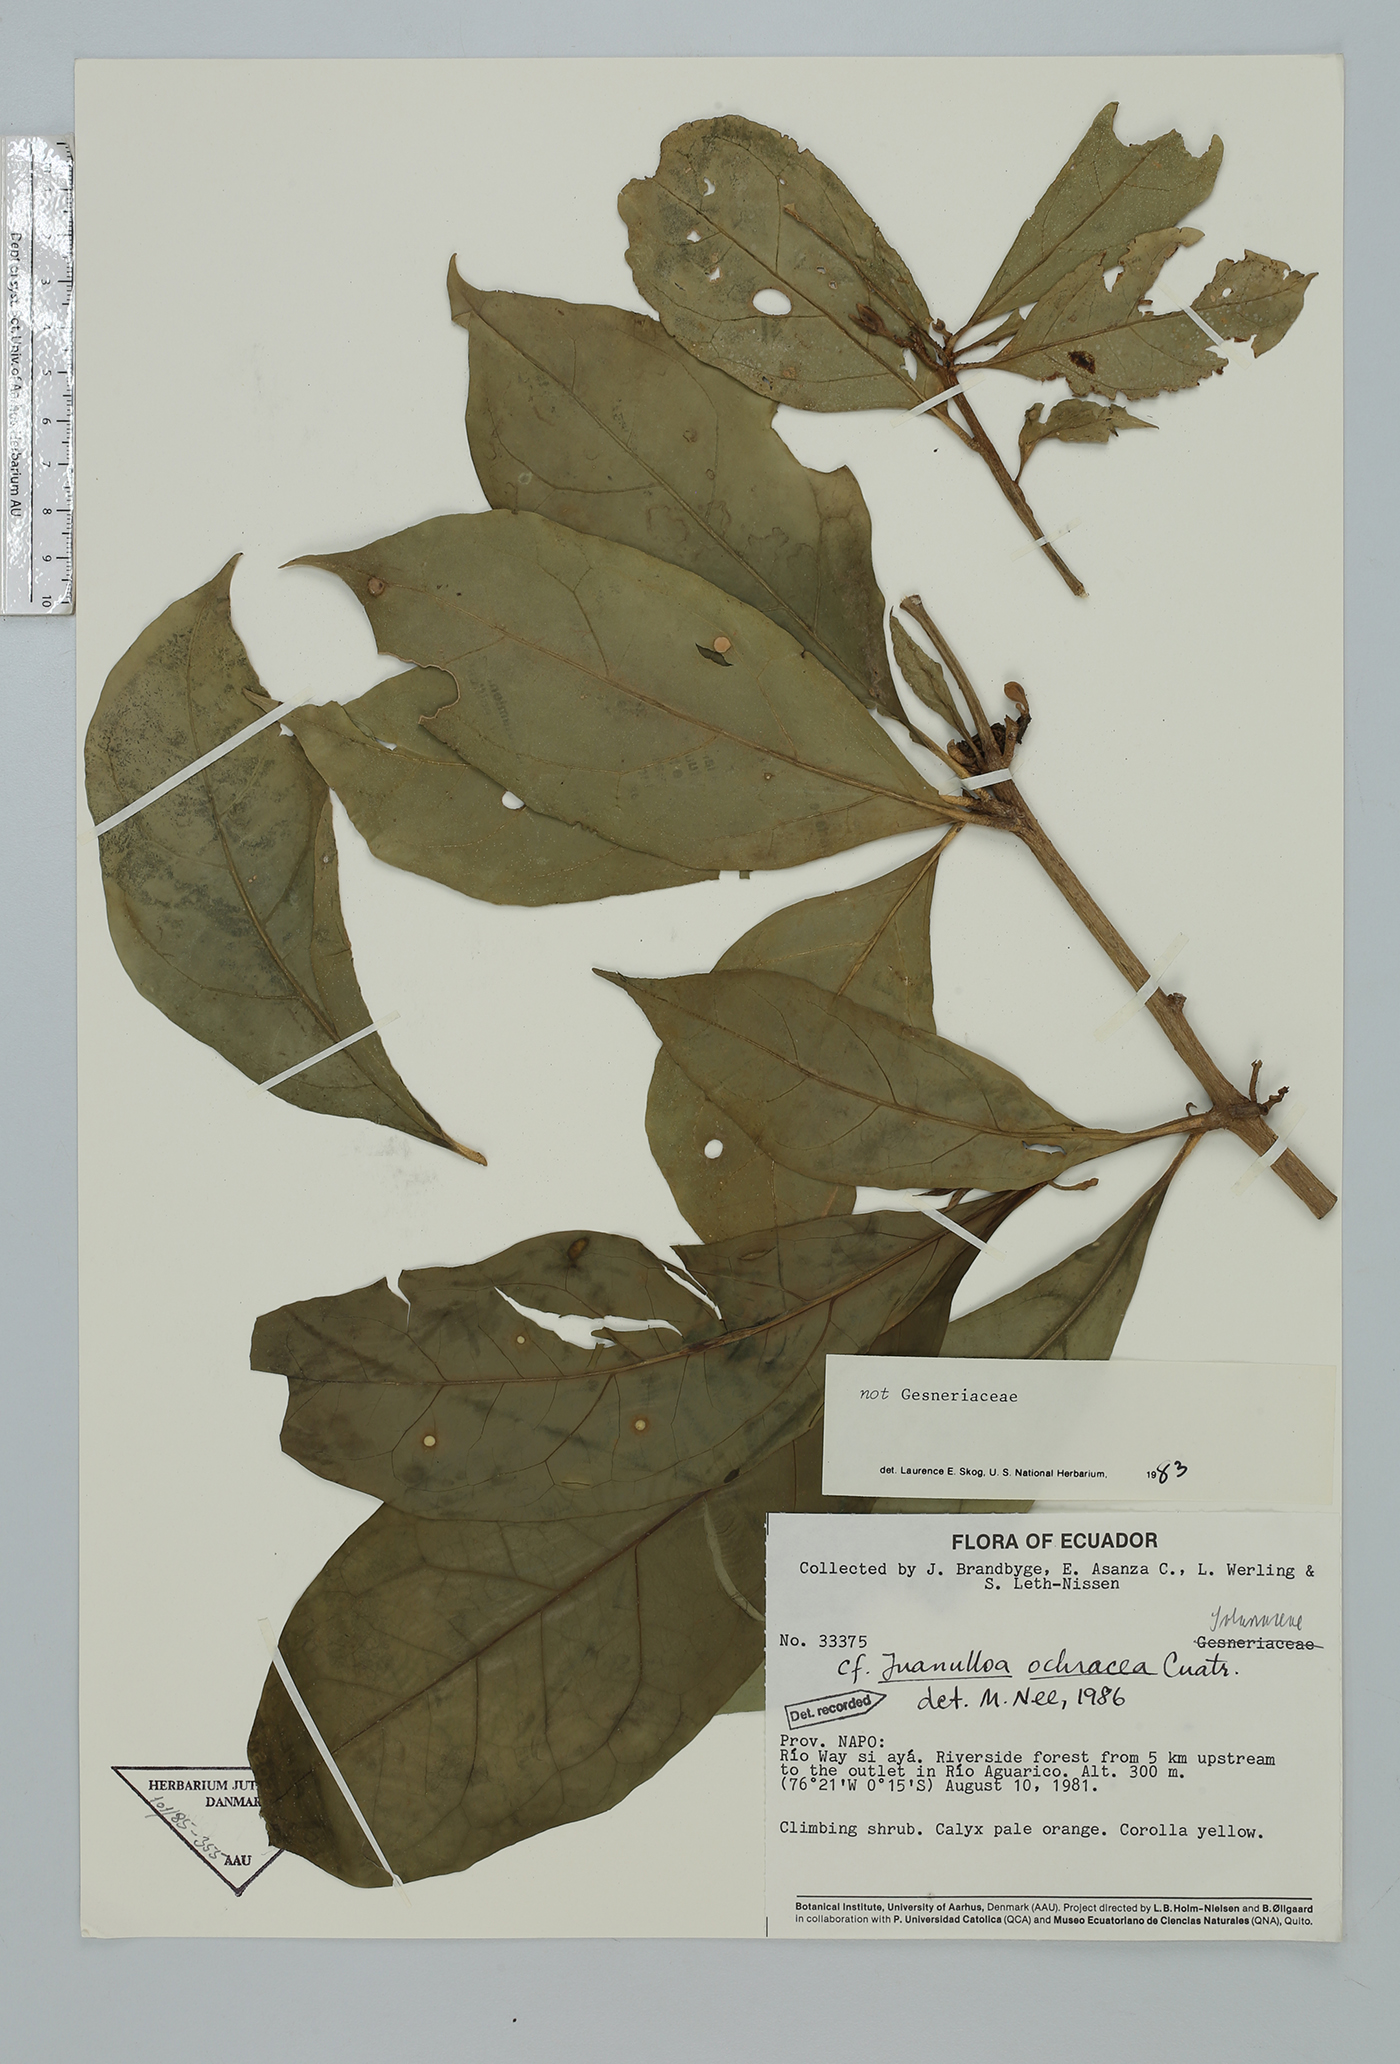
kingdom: Plantae
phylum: Tracheophyta
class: Magnoliopsida
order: Solanales
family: Solanaceae
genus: Hawkesiophyton
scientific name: Hawkesiophyton ochraceum
